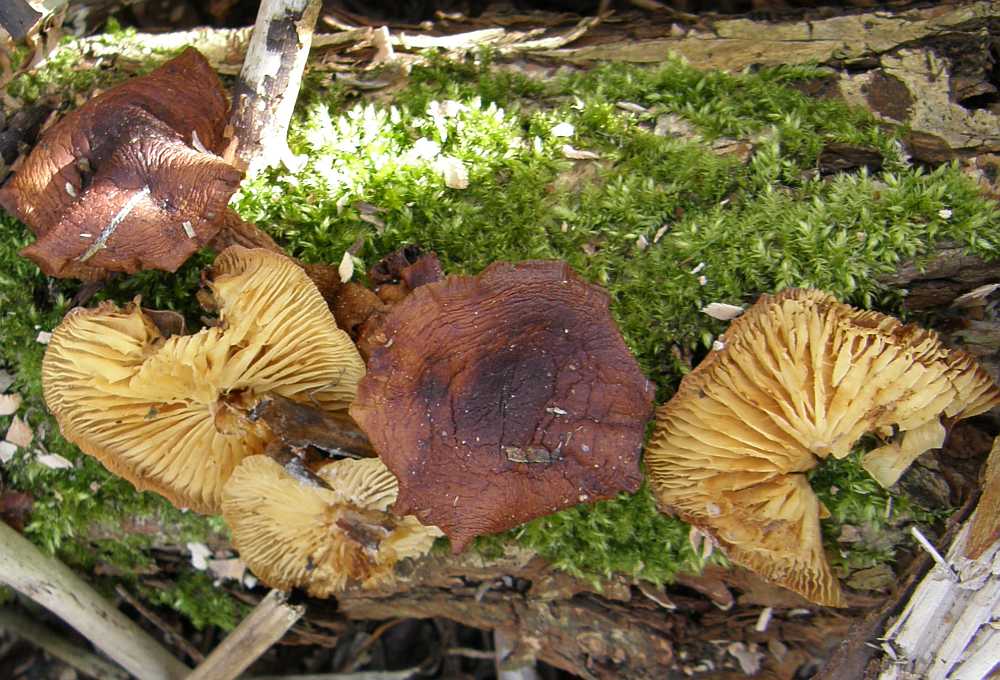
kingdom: Fungi
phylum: Basidiomycota
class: Agaricomycetes
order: Agaricales
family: Physalacriaceae
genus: Flammulina
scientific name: Flammulina velutipes
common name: gul fløjlsfod
